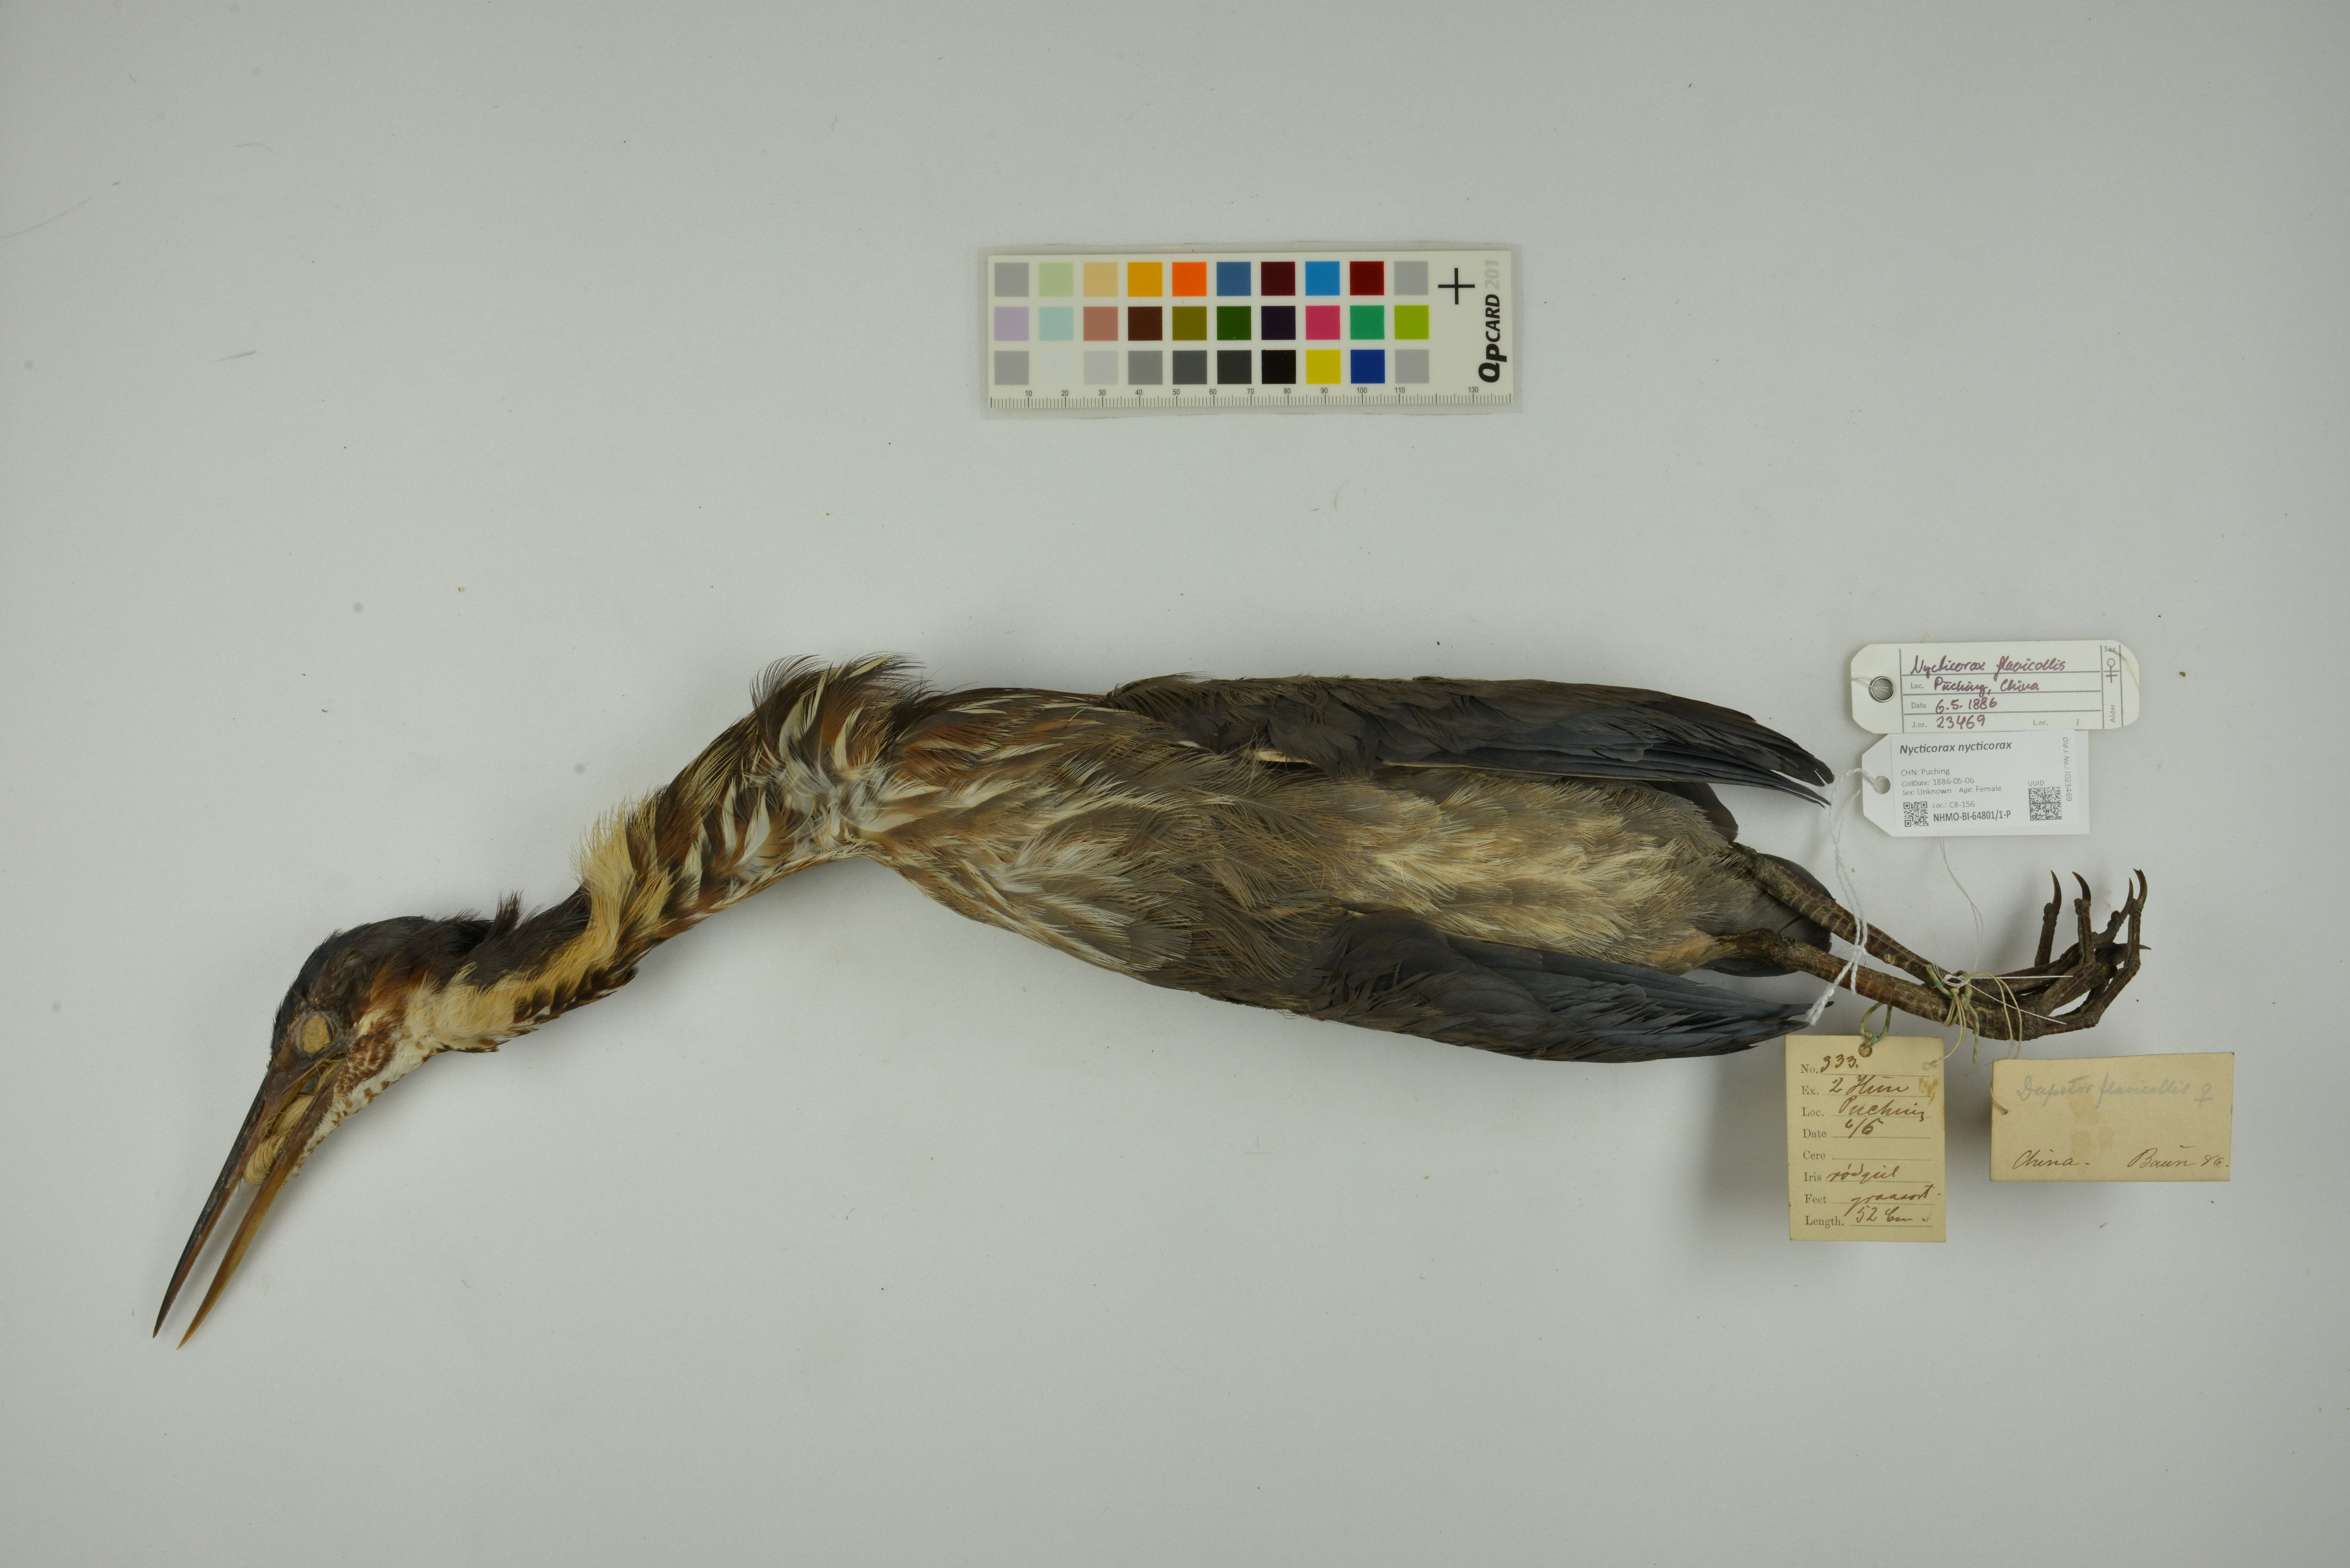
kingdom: Animalia
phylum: Chordata
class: Aves
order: Pelecaniformes
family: Ardeidae
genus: Nycticorax
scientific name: Nycticorax nycticorax
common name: Black-crowned night heron
